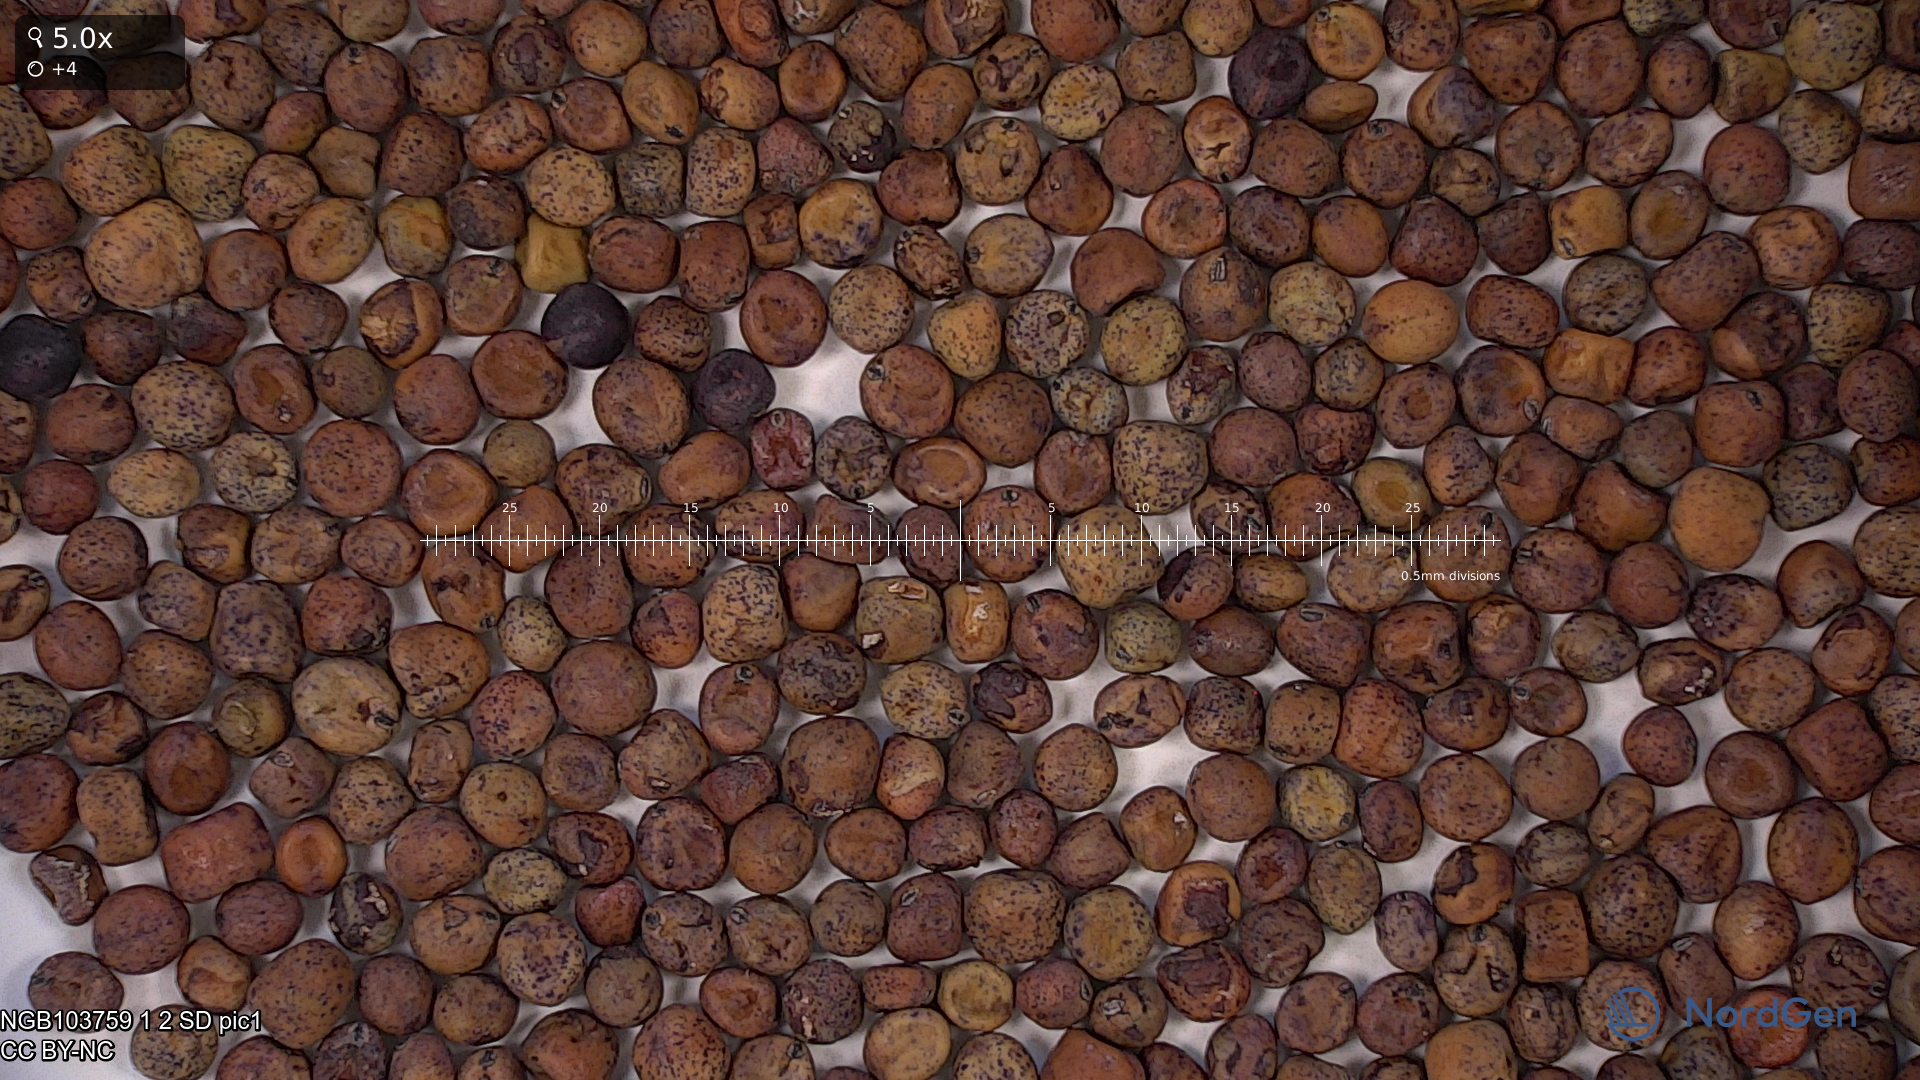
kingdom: Plantae
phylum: Tracheophyta
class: Magnoliopsida
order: Fabales
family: Fabaceae
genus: Lathyrus
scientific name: Lathyrus oleraceus
